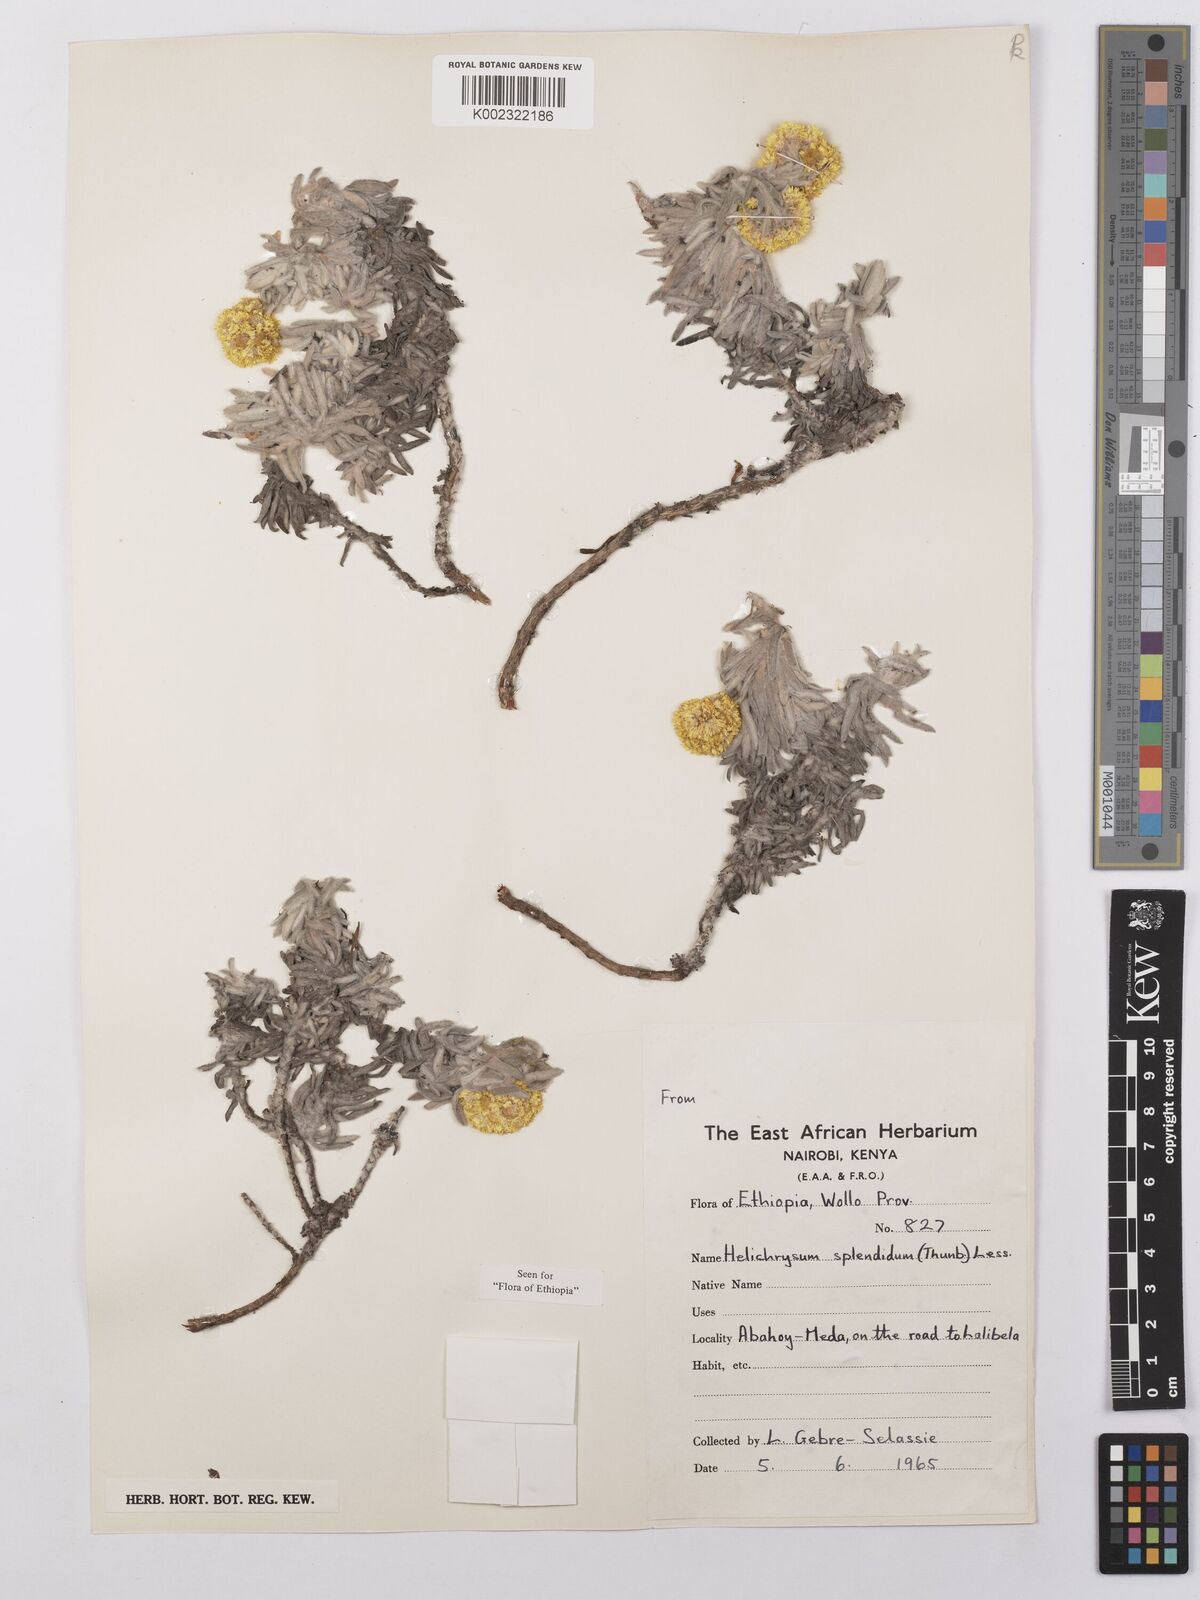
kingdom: Plantae
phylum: Tracheophyta
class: Magnoliopsida
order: Asterales
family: Asteraceae
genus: Helichrysum
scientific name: Helichrysum splendidum
